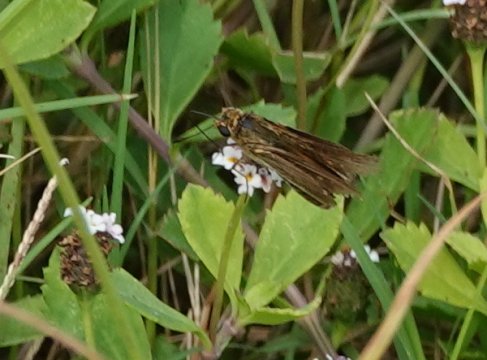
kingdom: Animalia
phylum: Arthropoda
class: Insecta
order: Lepidoptera
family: Hesperiidae
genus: Panoquina
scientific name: Panoquina ocola
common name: Ocola Skipper
